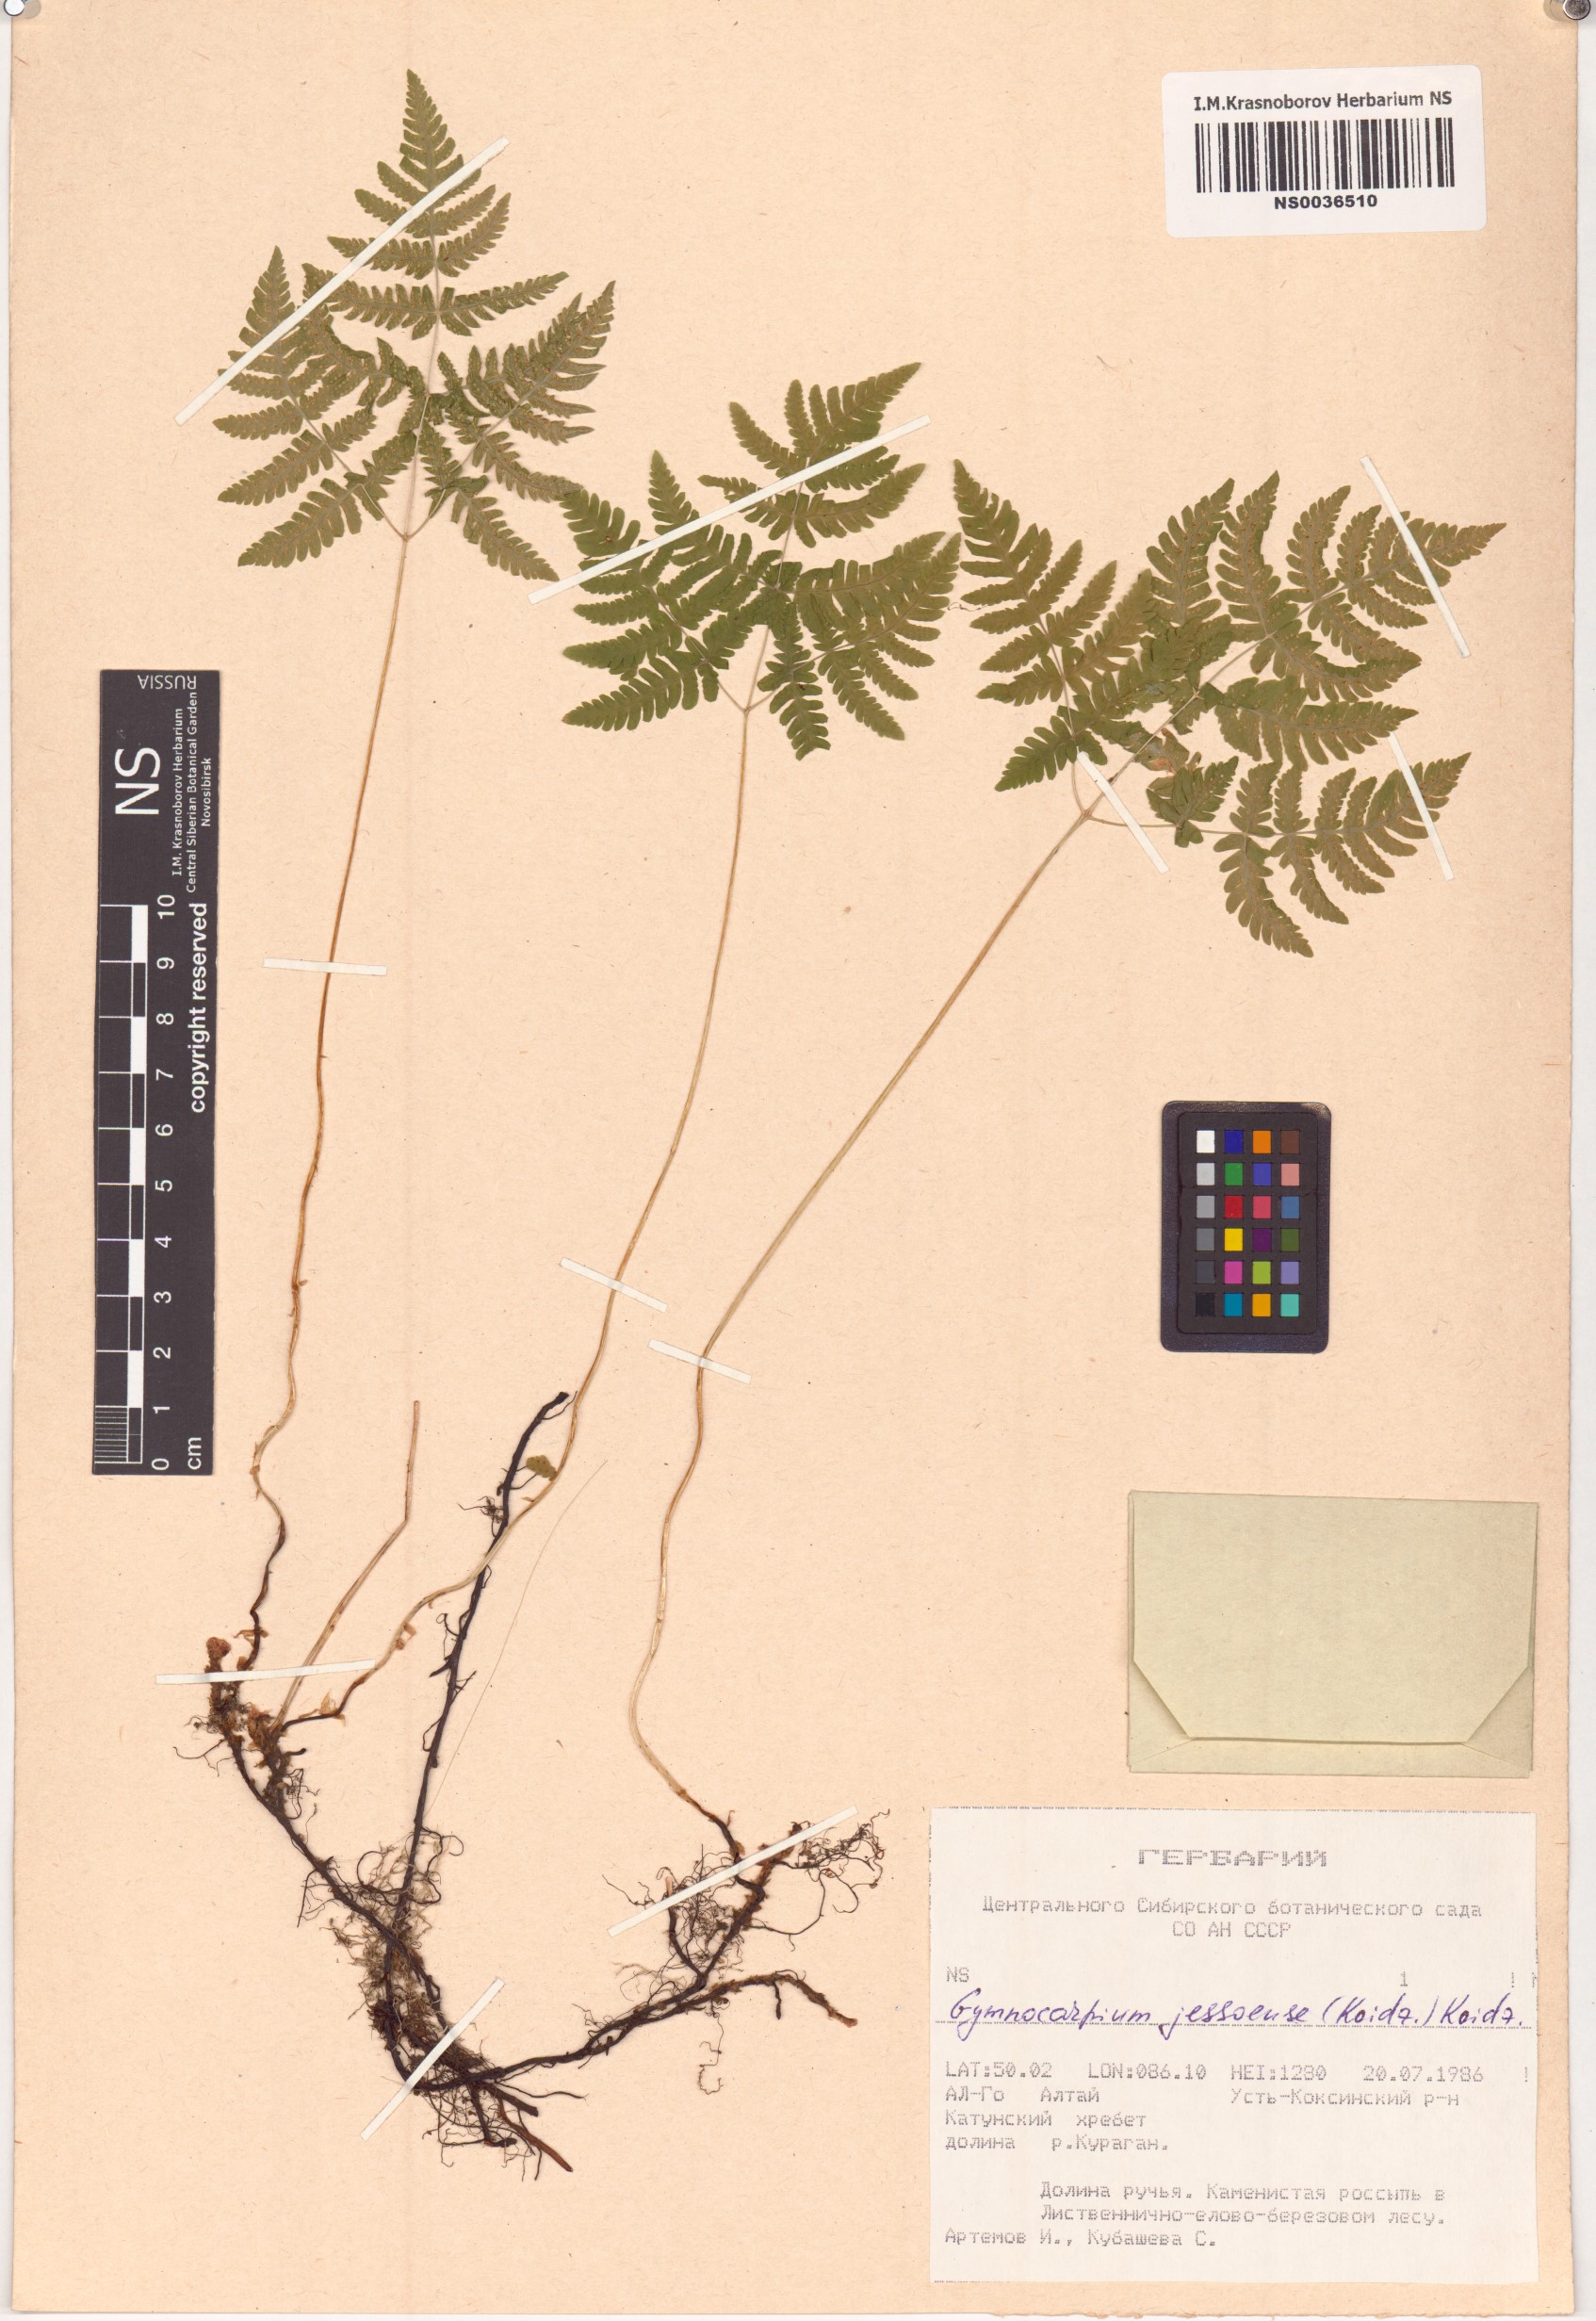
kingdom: Plantae
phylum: Tracheophyta
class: Polypodiopsida
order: Polypodiales
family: Cystopteridaceae
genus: Gymnocarpium
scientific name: Gymnocarpium jessoense
